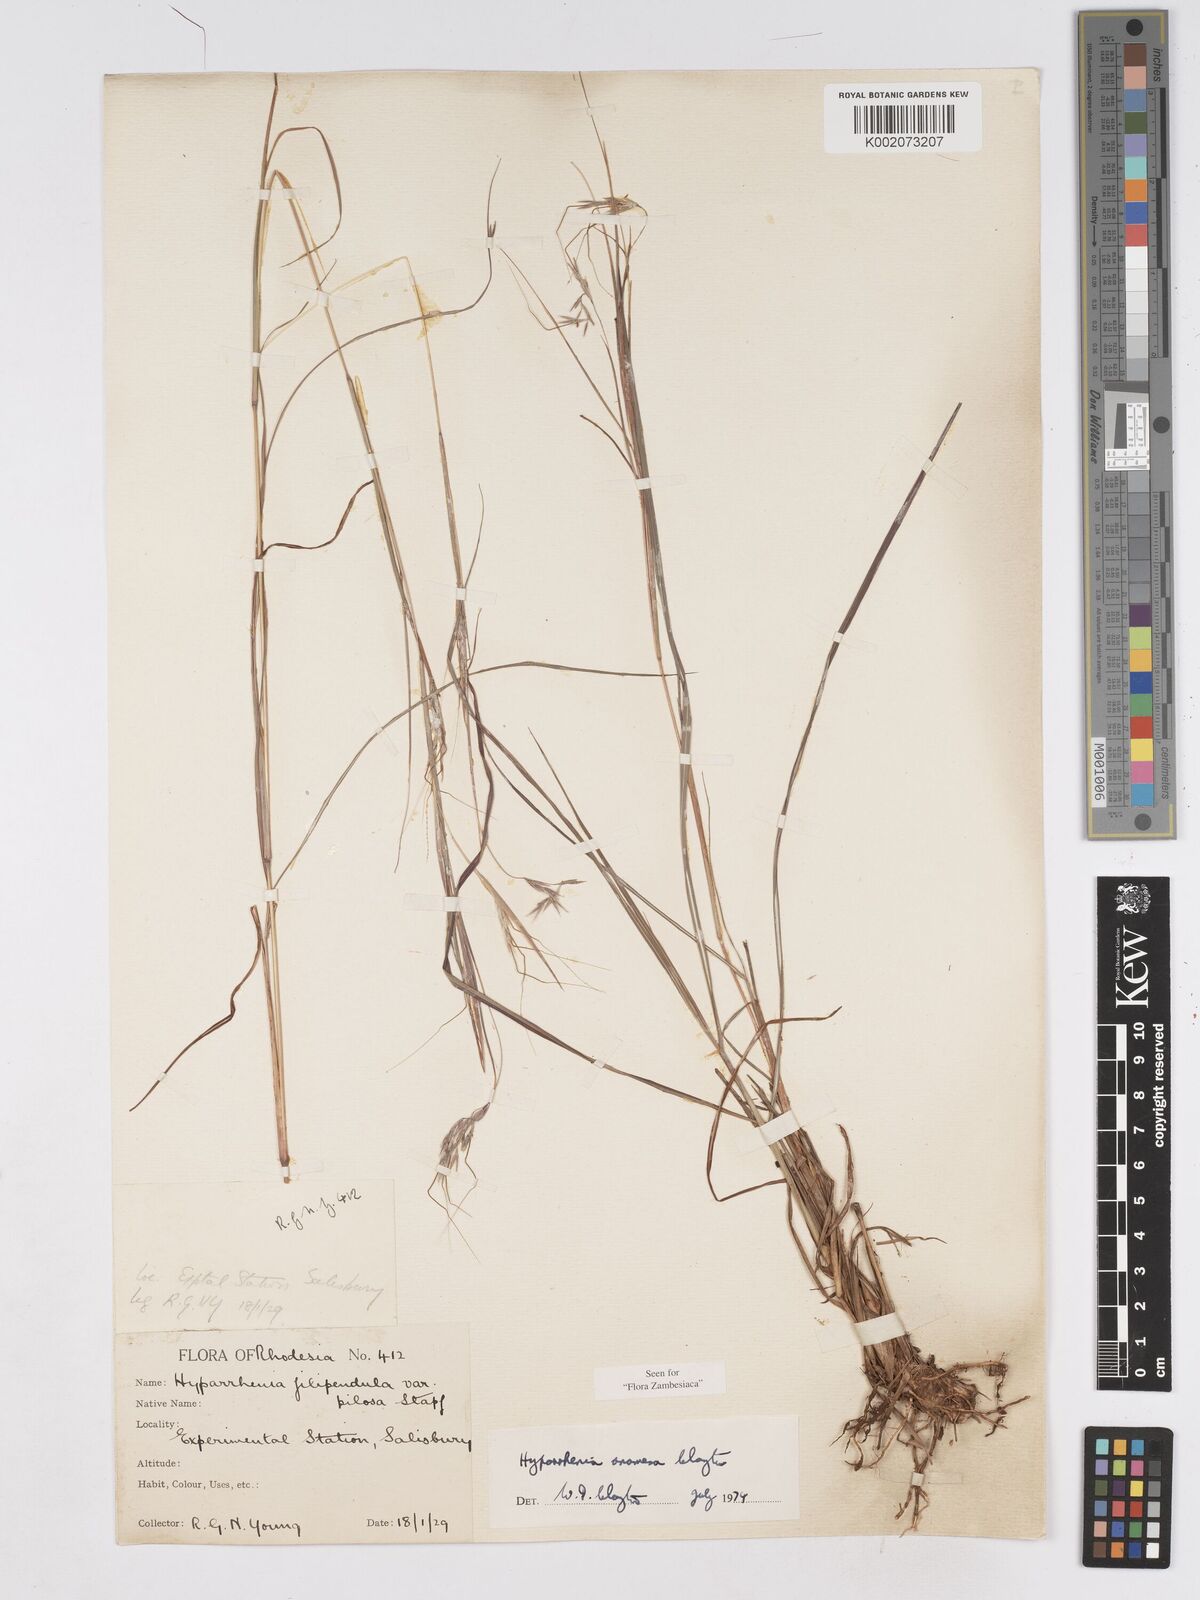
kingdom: Plantae
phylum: Tracheophyta
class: Liliopsida
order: Poales
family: Poaceae
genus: Hyparrhenia
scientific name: Hyparrhenia anamesa
